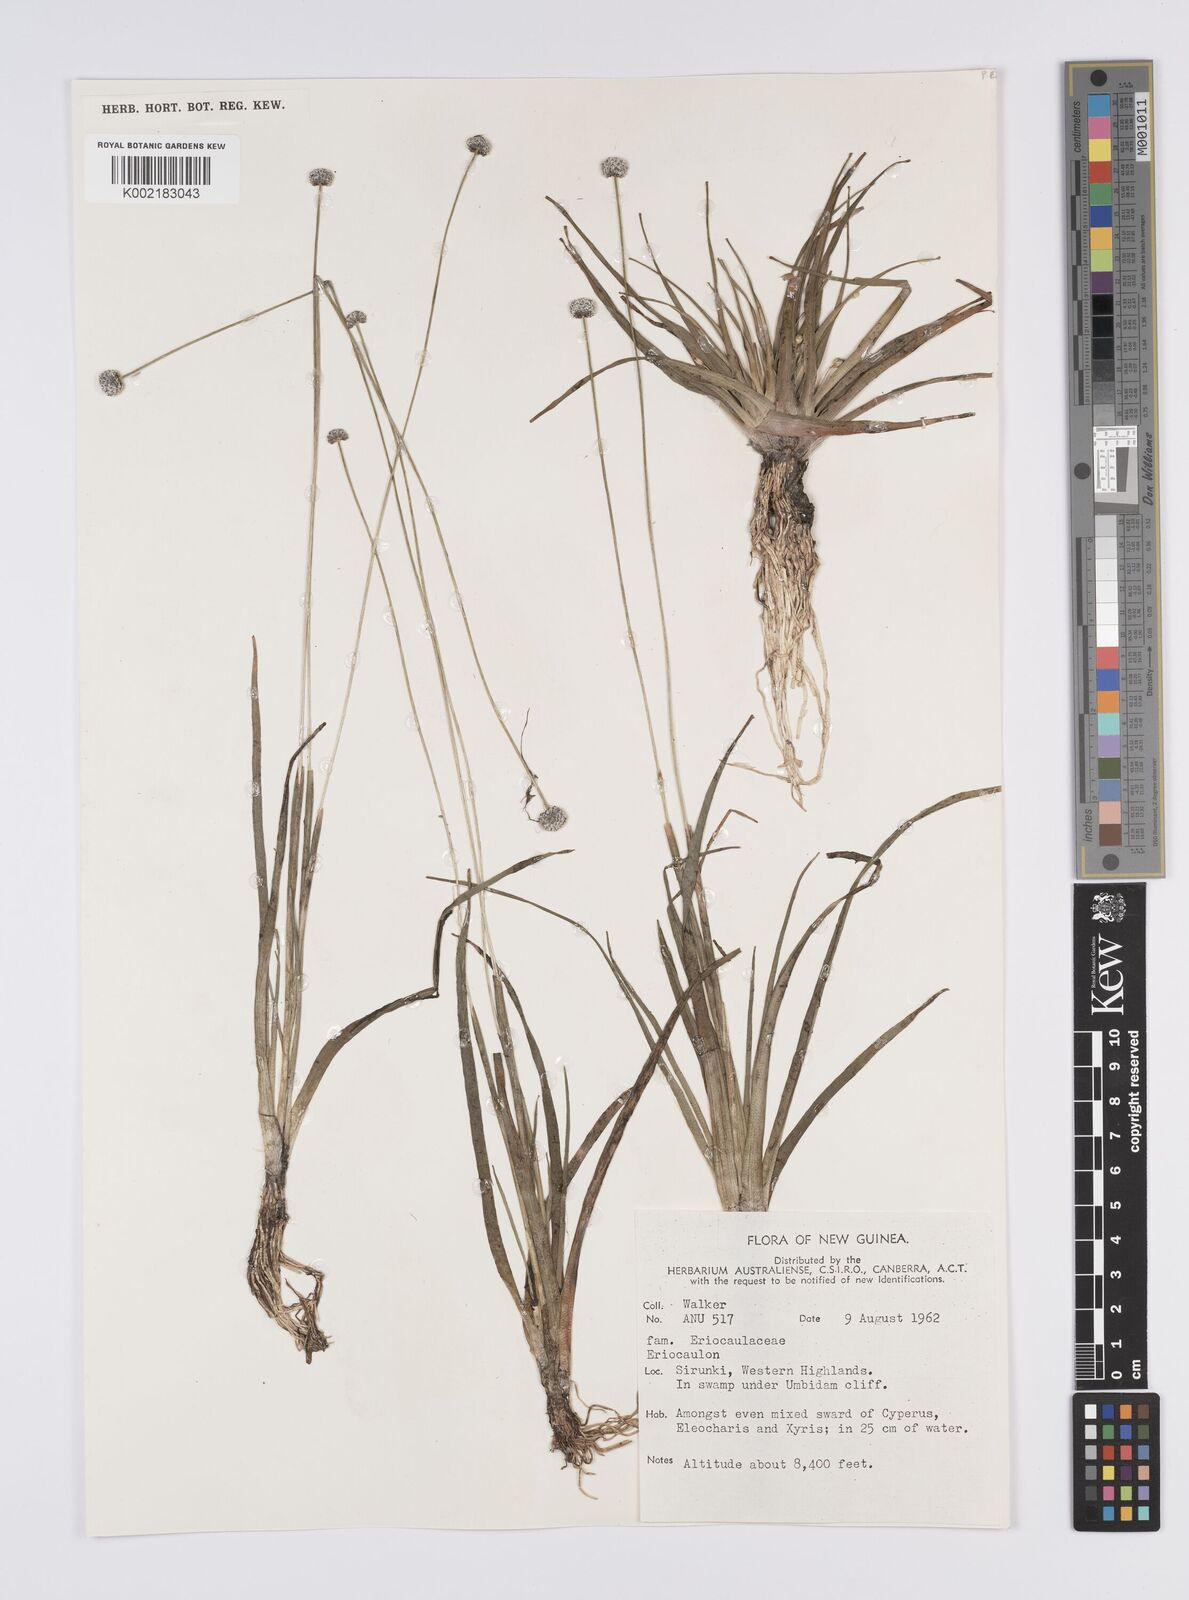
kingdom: Plantae
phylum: Tracheophyta
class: Liliopsida
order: Poales
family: Eriocaulaceae
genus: Eriocaulon
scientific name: Eriocaulon
